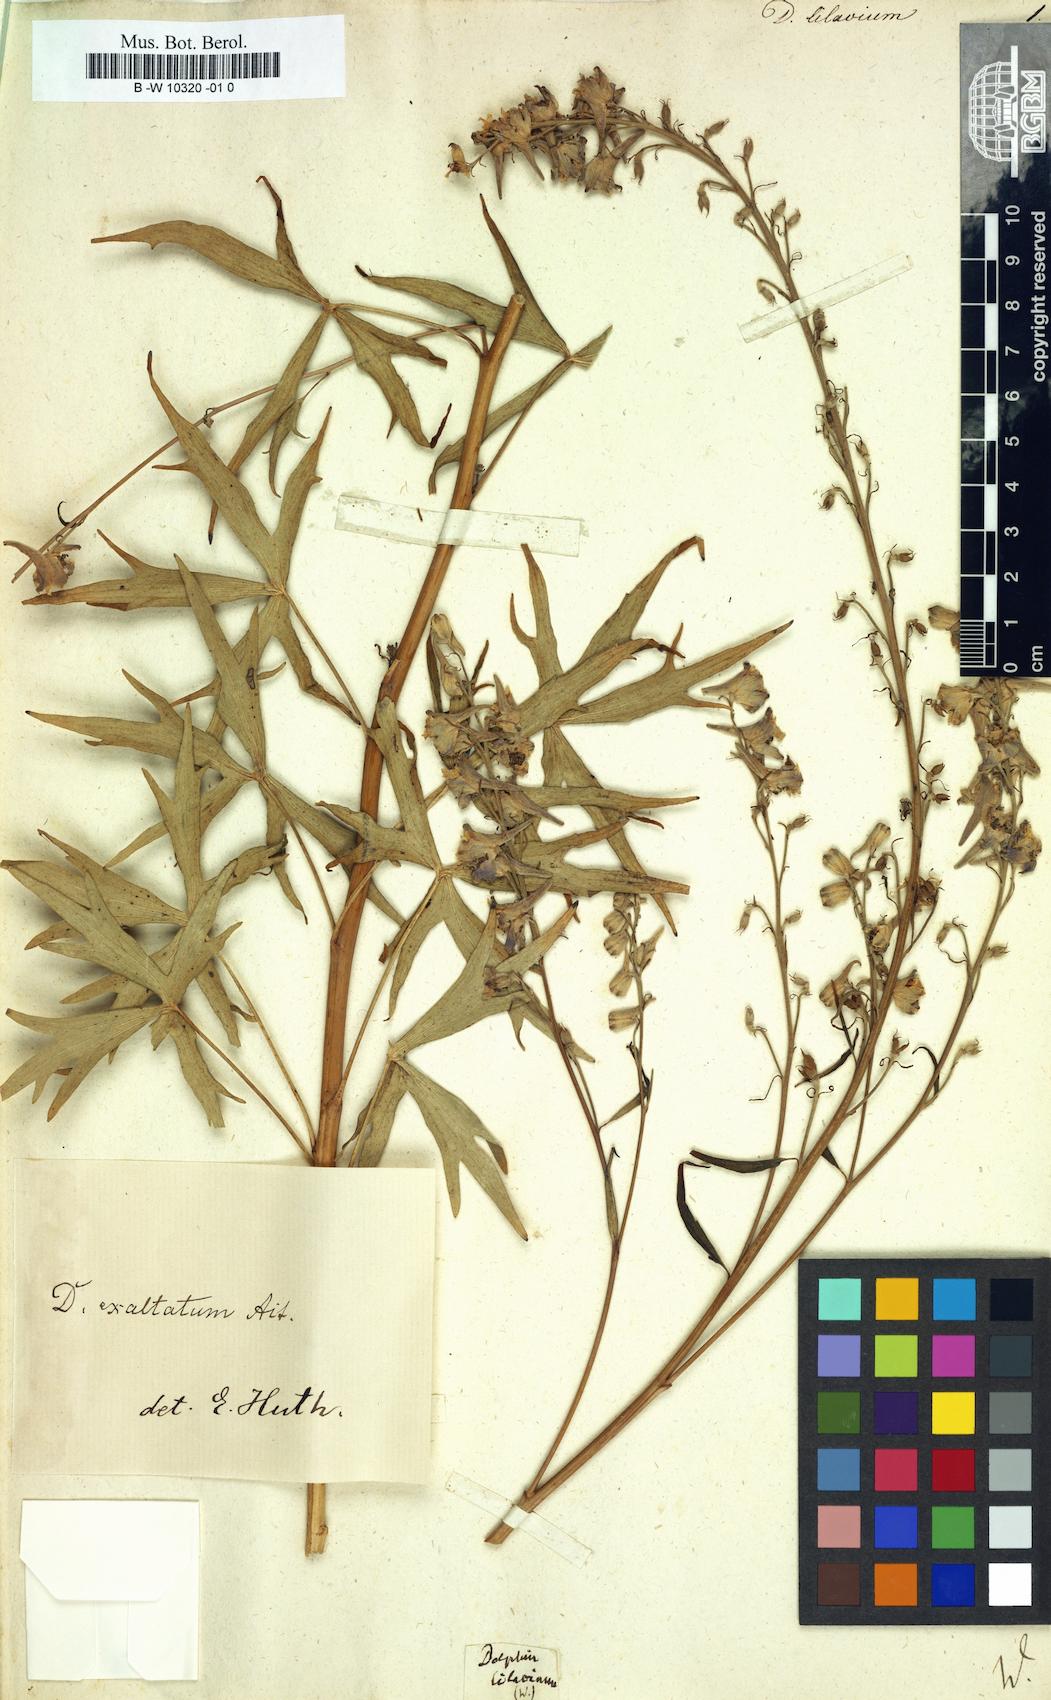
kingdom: Plantae
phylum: Tracheophyta
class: Magnoliopsida
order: Ranunculales
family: Ranunculaceae
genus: Delphinium
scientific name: Delphinium
